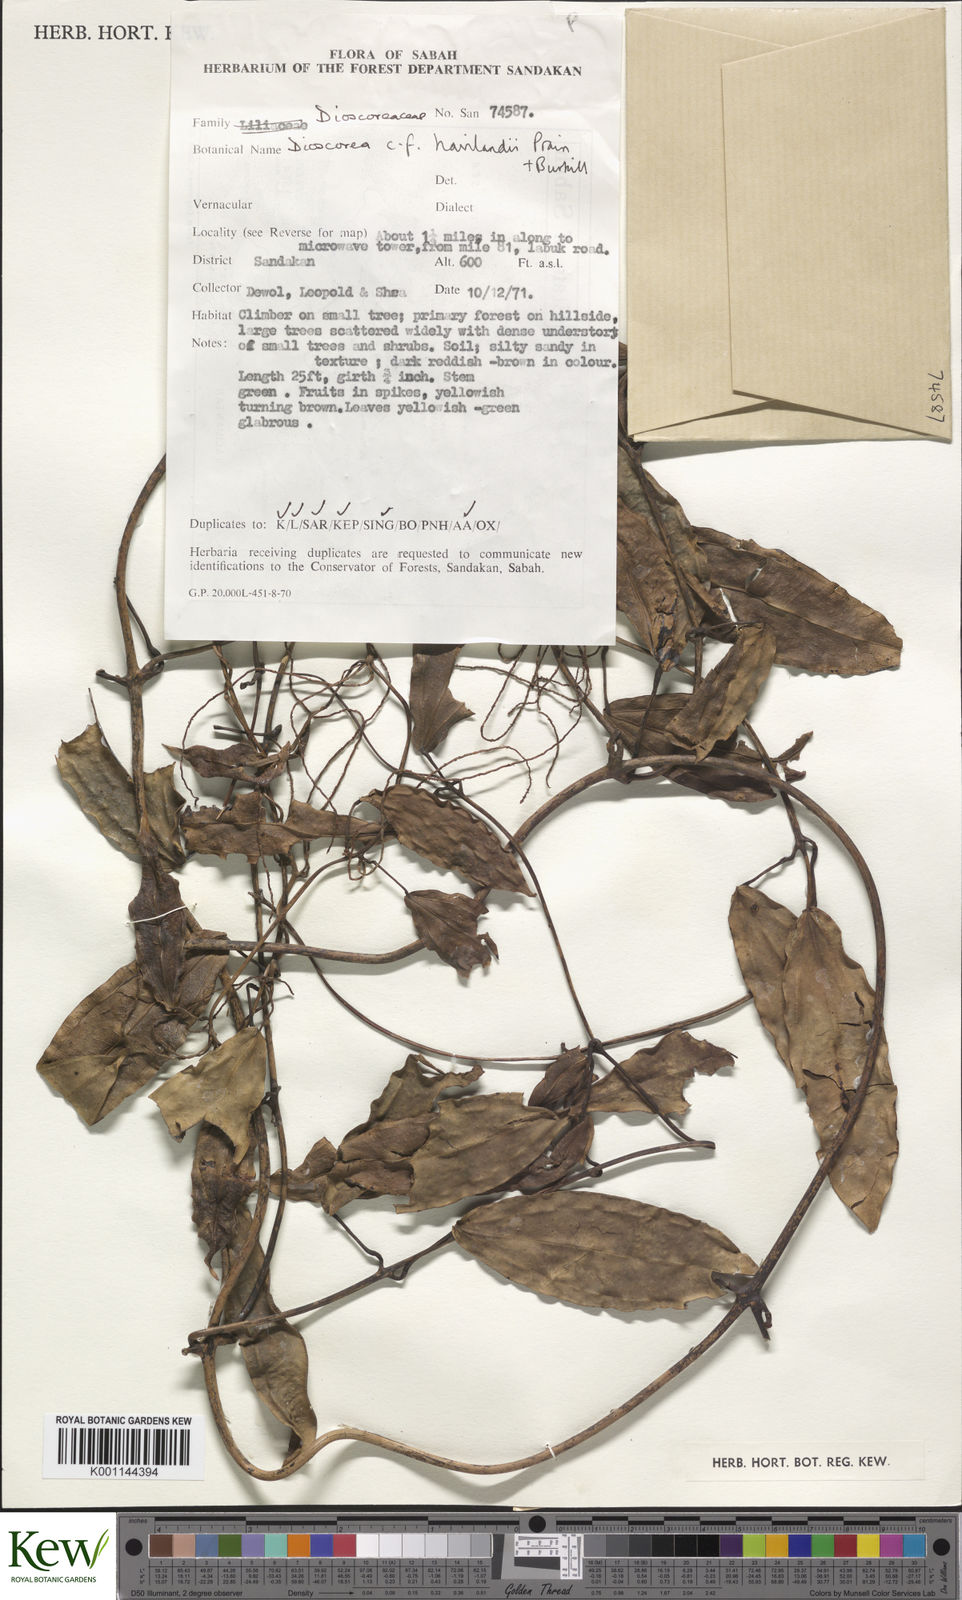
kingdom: Plantae
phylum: Tracheophyta
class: Liliopsida
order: Dioscoreales
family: Dioscoreaceae
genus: Dioscorea
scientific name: Dioscorea havilandii
